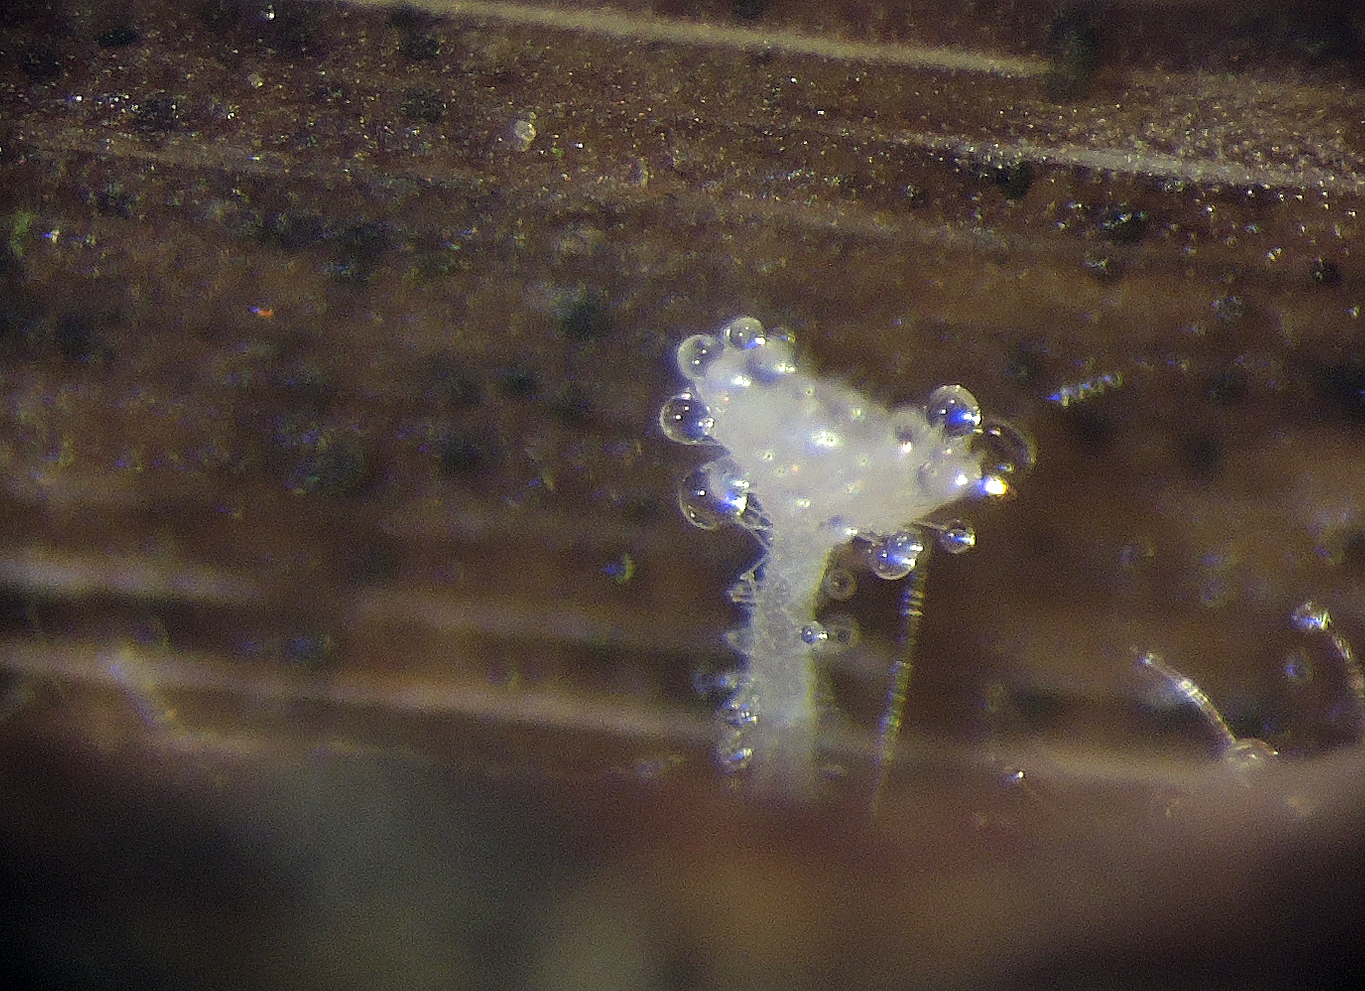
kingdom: Fungi
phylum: Ascomycota
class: Leotiomycetes
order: Helotiales
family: Lachnaceae
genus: Lachnum
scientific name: Lachnum
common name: frynseskive
